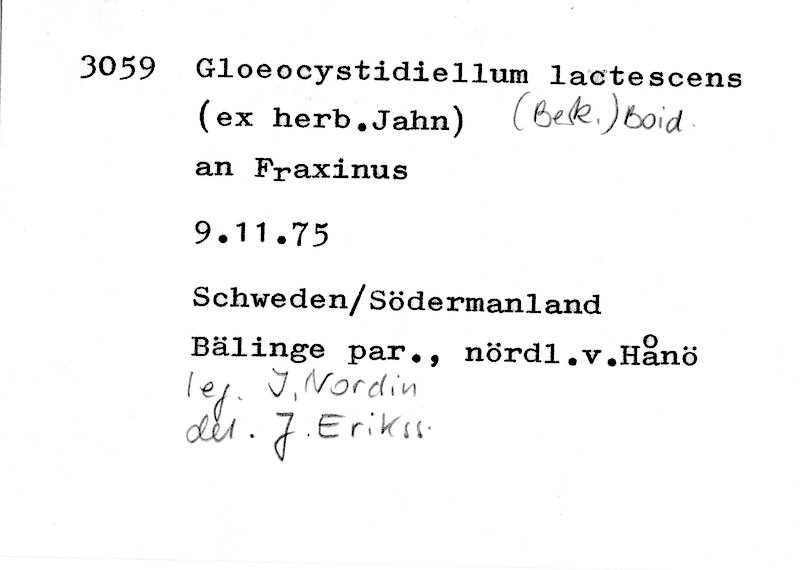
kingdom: Plantae
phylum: Tracheophyta
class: Magnoliopsida
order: Lamiales
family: Oleaceae
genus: Fraxinus
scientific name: Fraxinus
